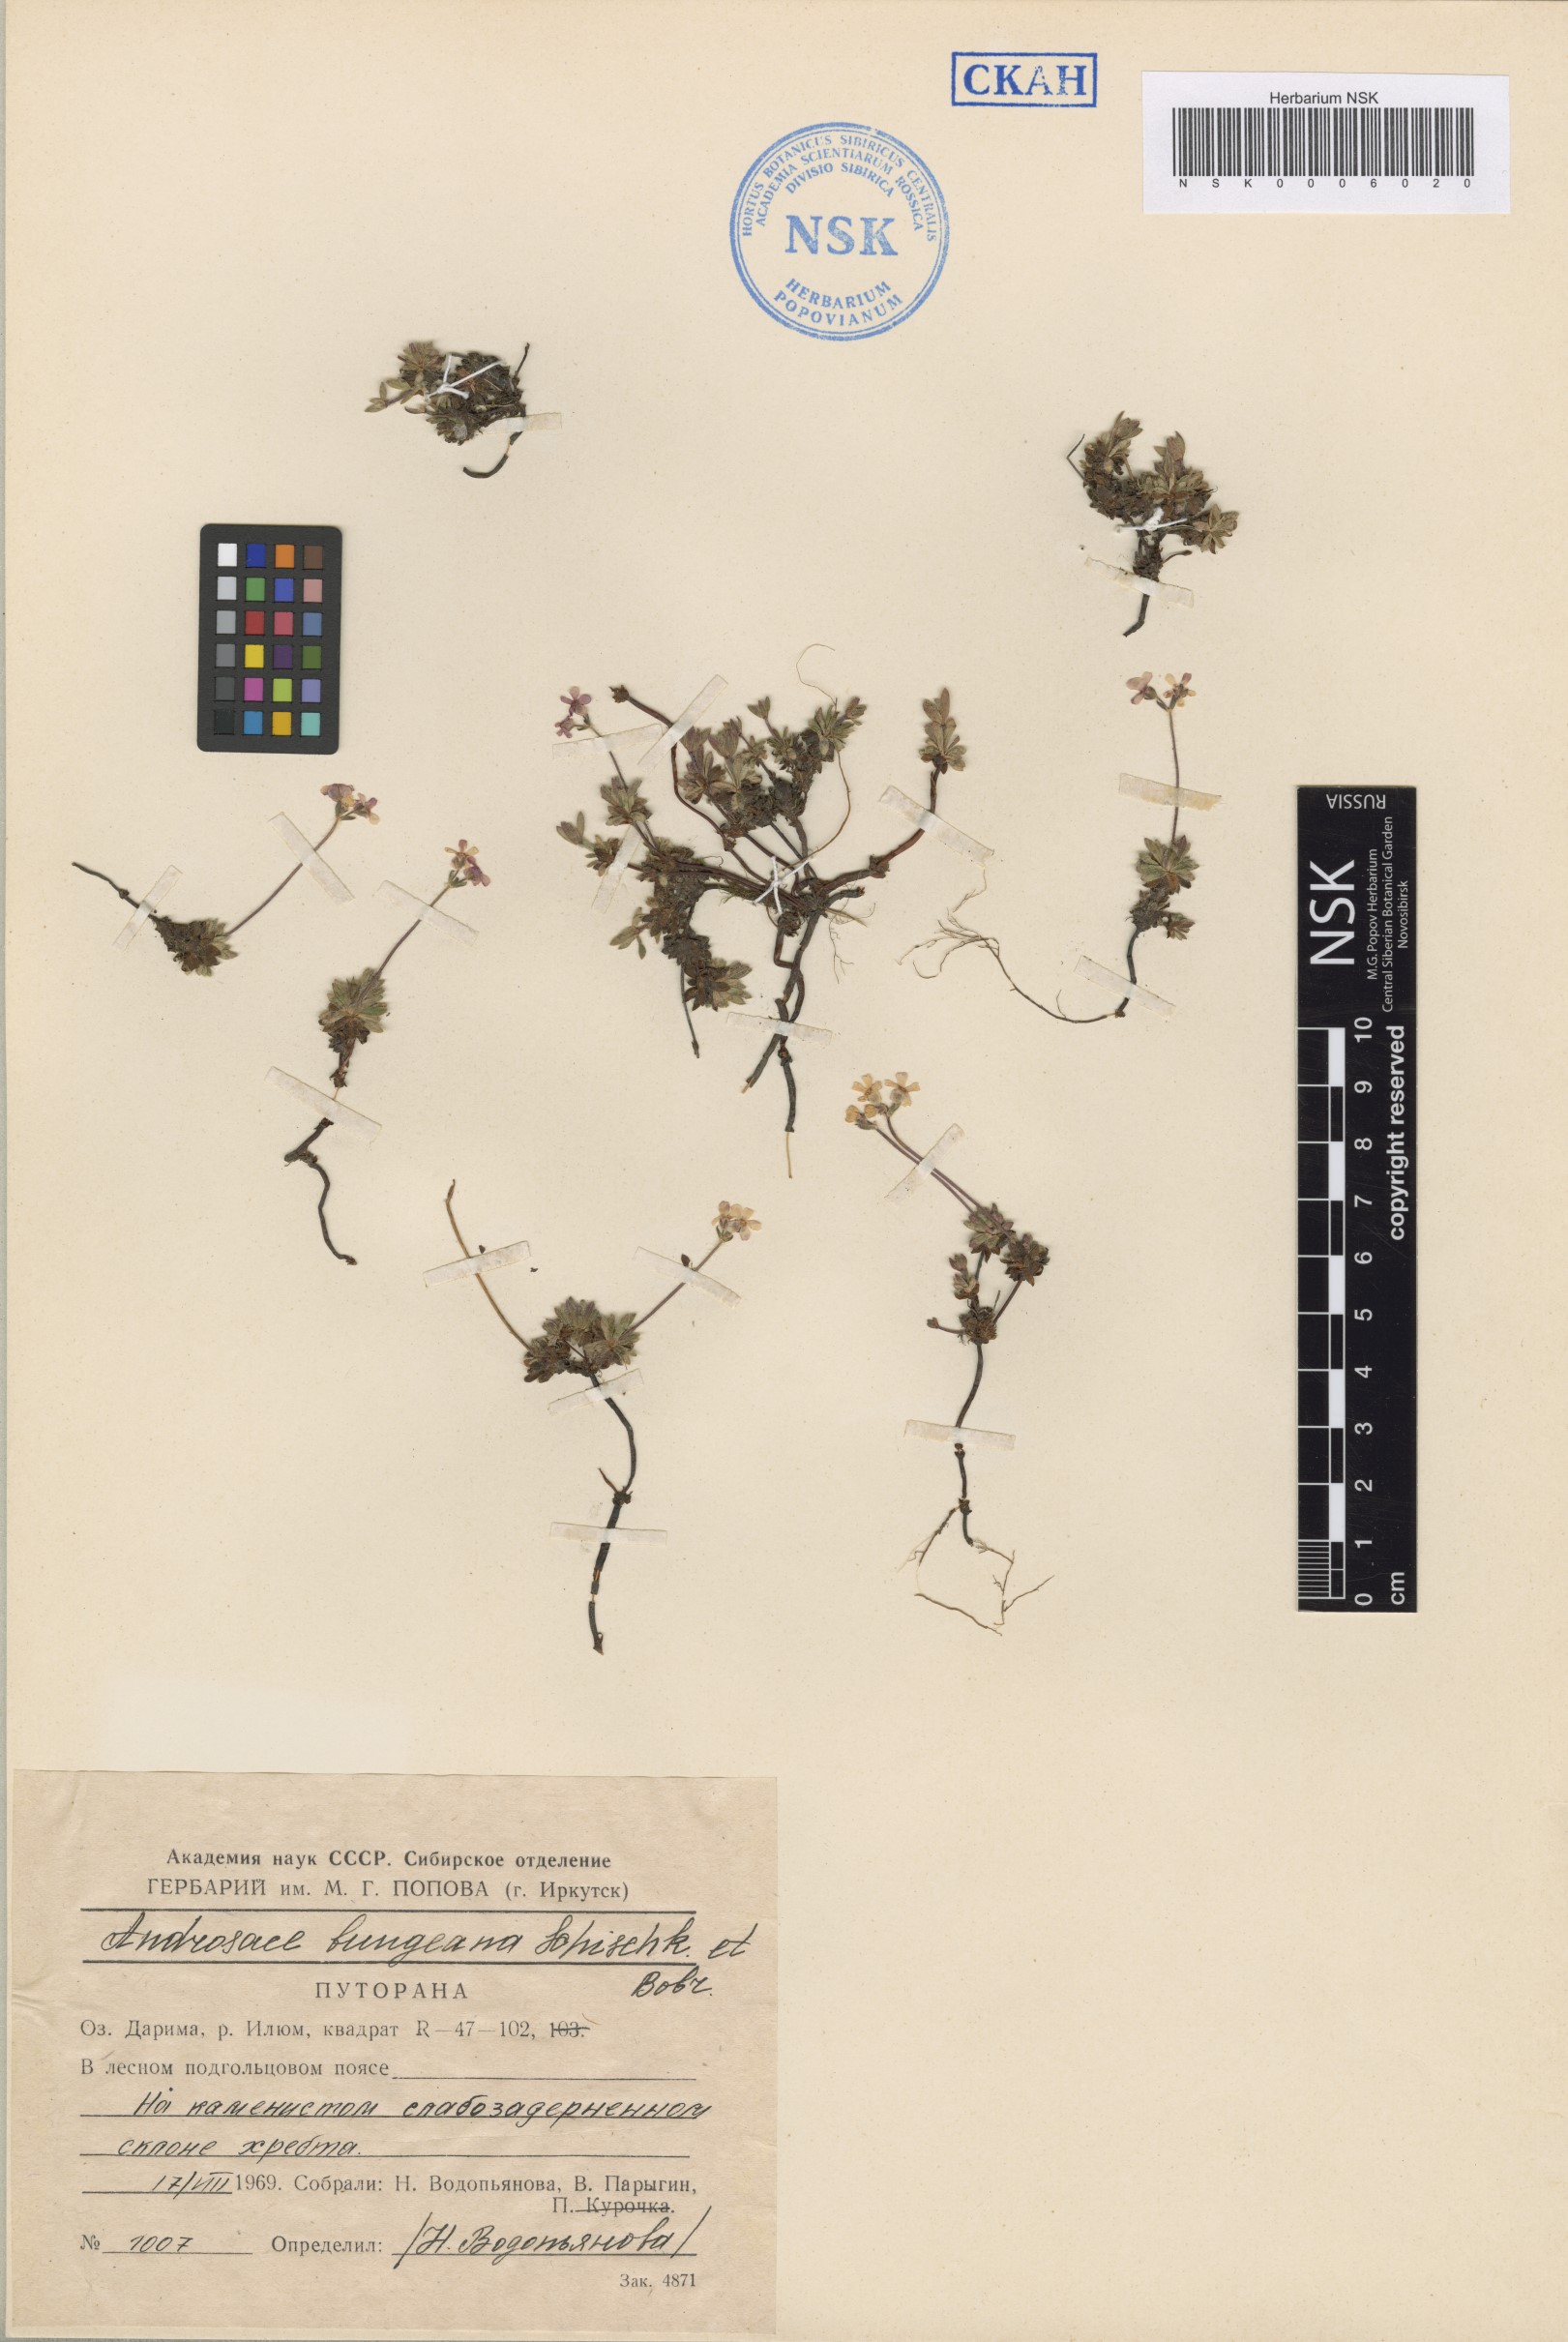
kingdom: Plantae
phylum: Tracheophyta
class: Magnoliopsida
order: Ericales
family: Primulaceae
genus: Androsace
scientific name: Androsace bungeana
